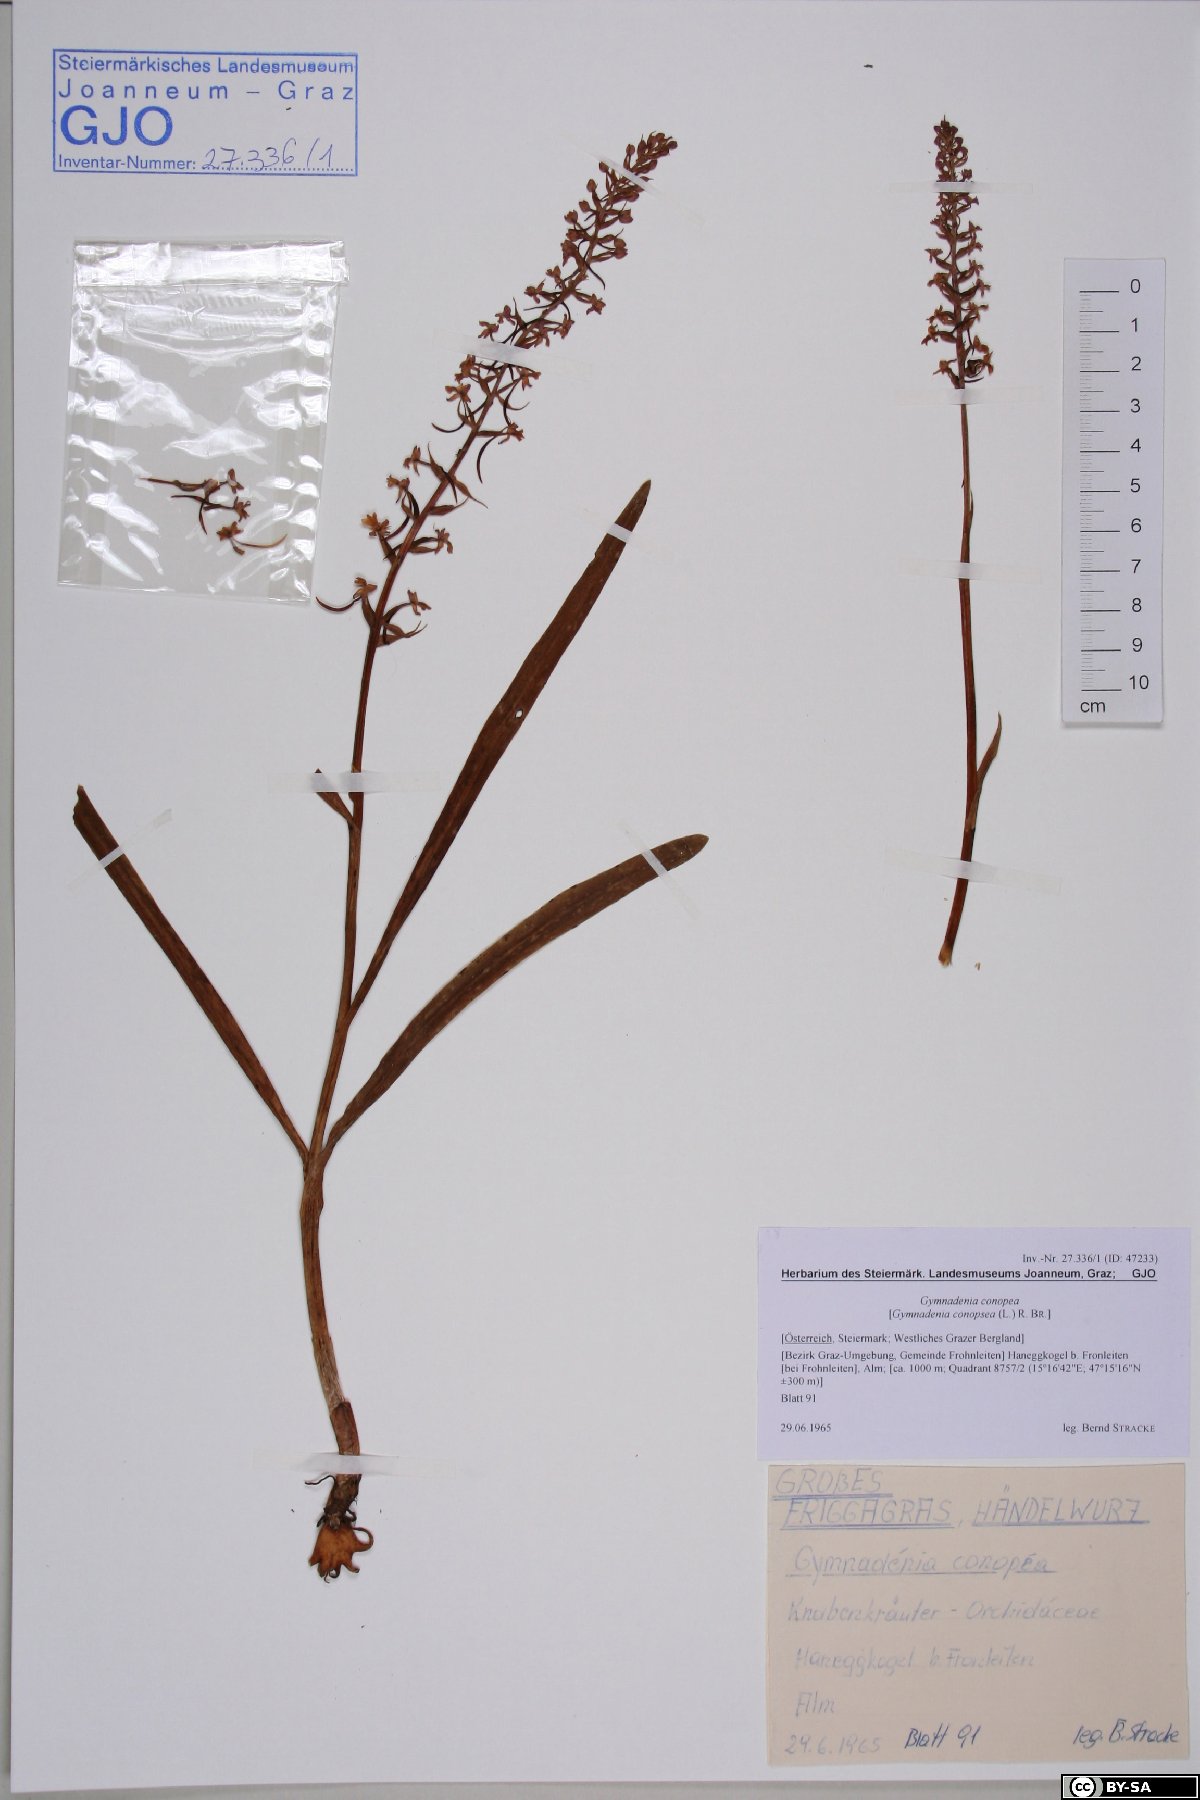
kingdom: Plantae
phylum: Tracheophyta
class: Liliopsida
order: Asparagales
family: Orchidaceae
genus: Gymnadenia
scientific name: Gymnadenia conopsea
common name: Fragrant orchid
